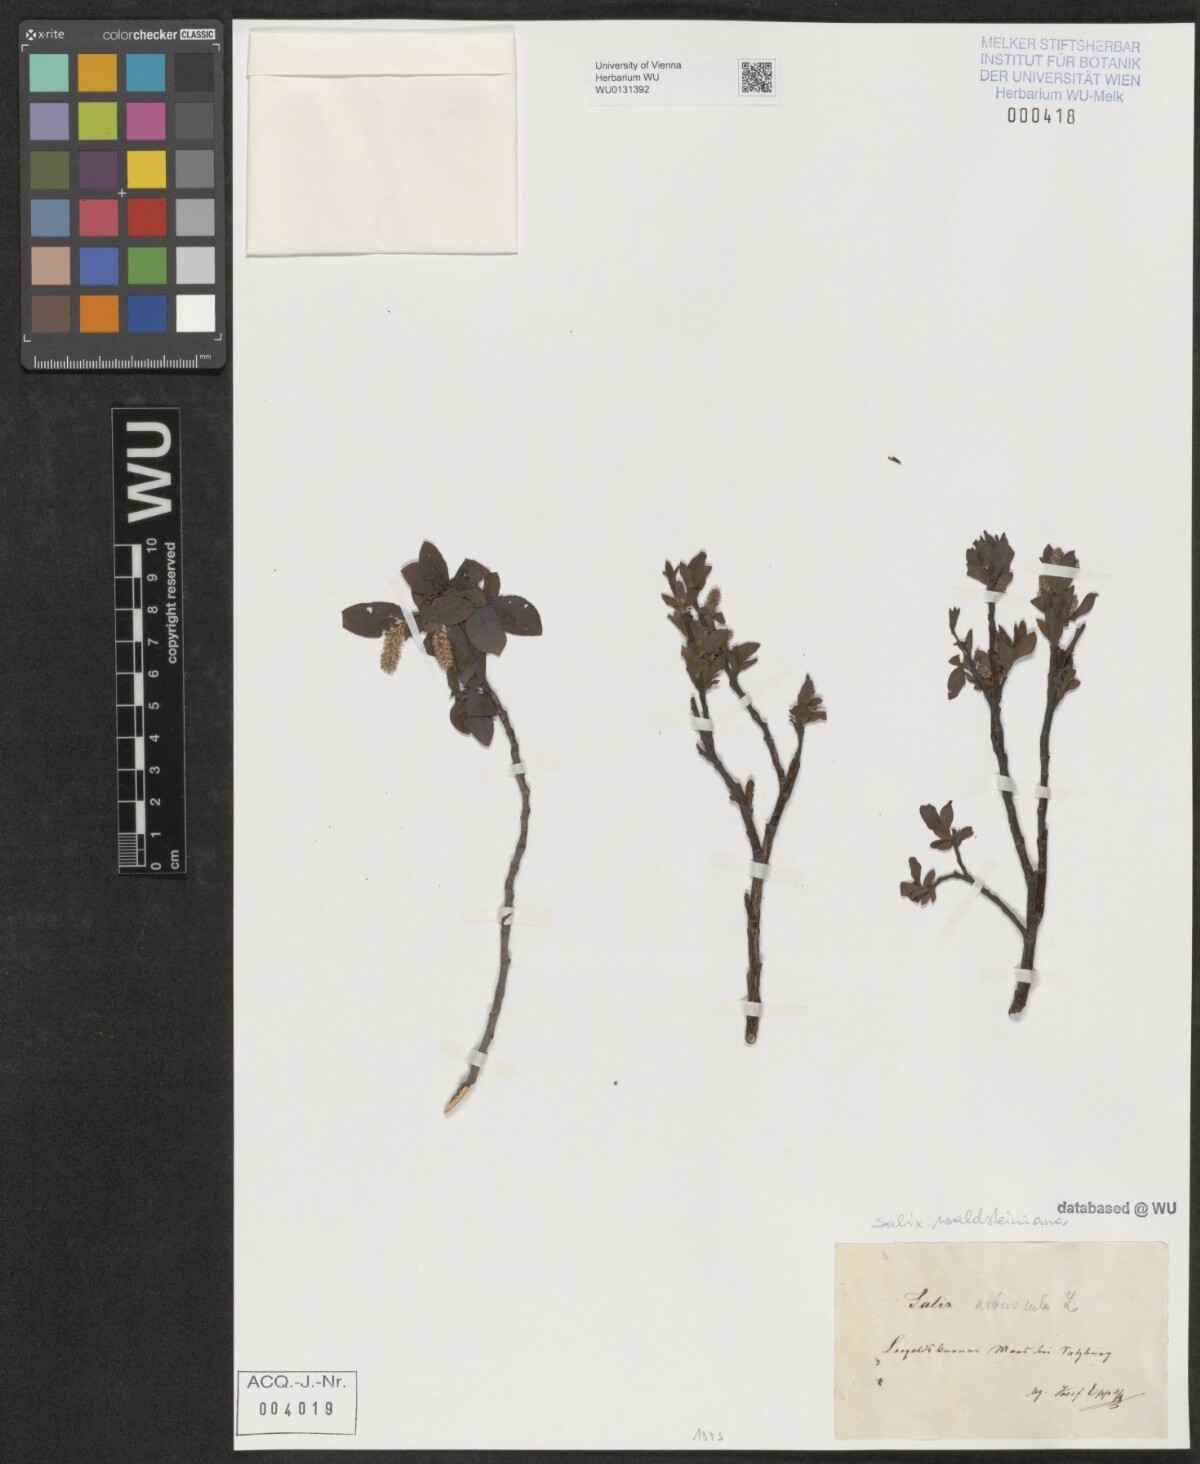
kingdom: Plantae
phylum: Tracheophyta
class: Magnoliopsida
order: Malpighiales
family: Salicaceae
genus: Salix
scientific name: Salix waldsteiniana
